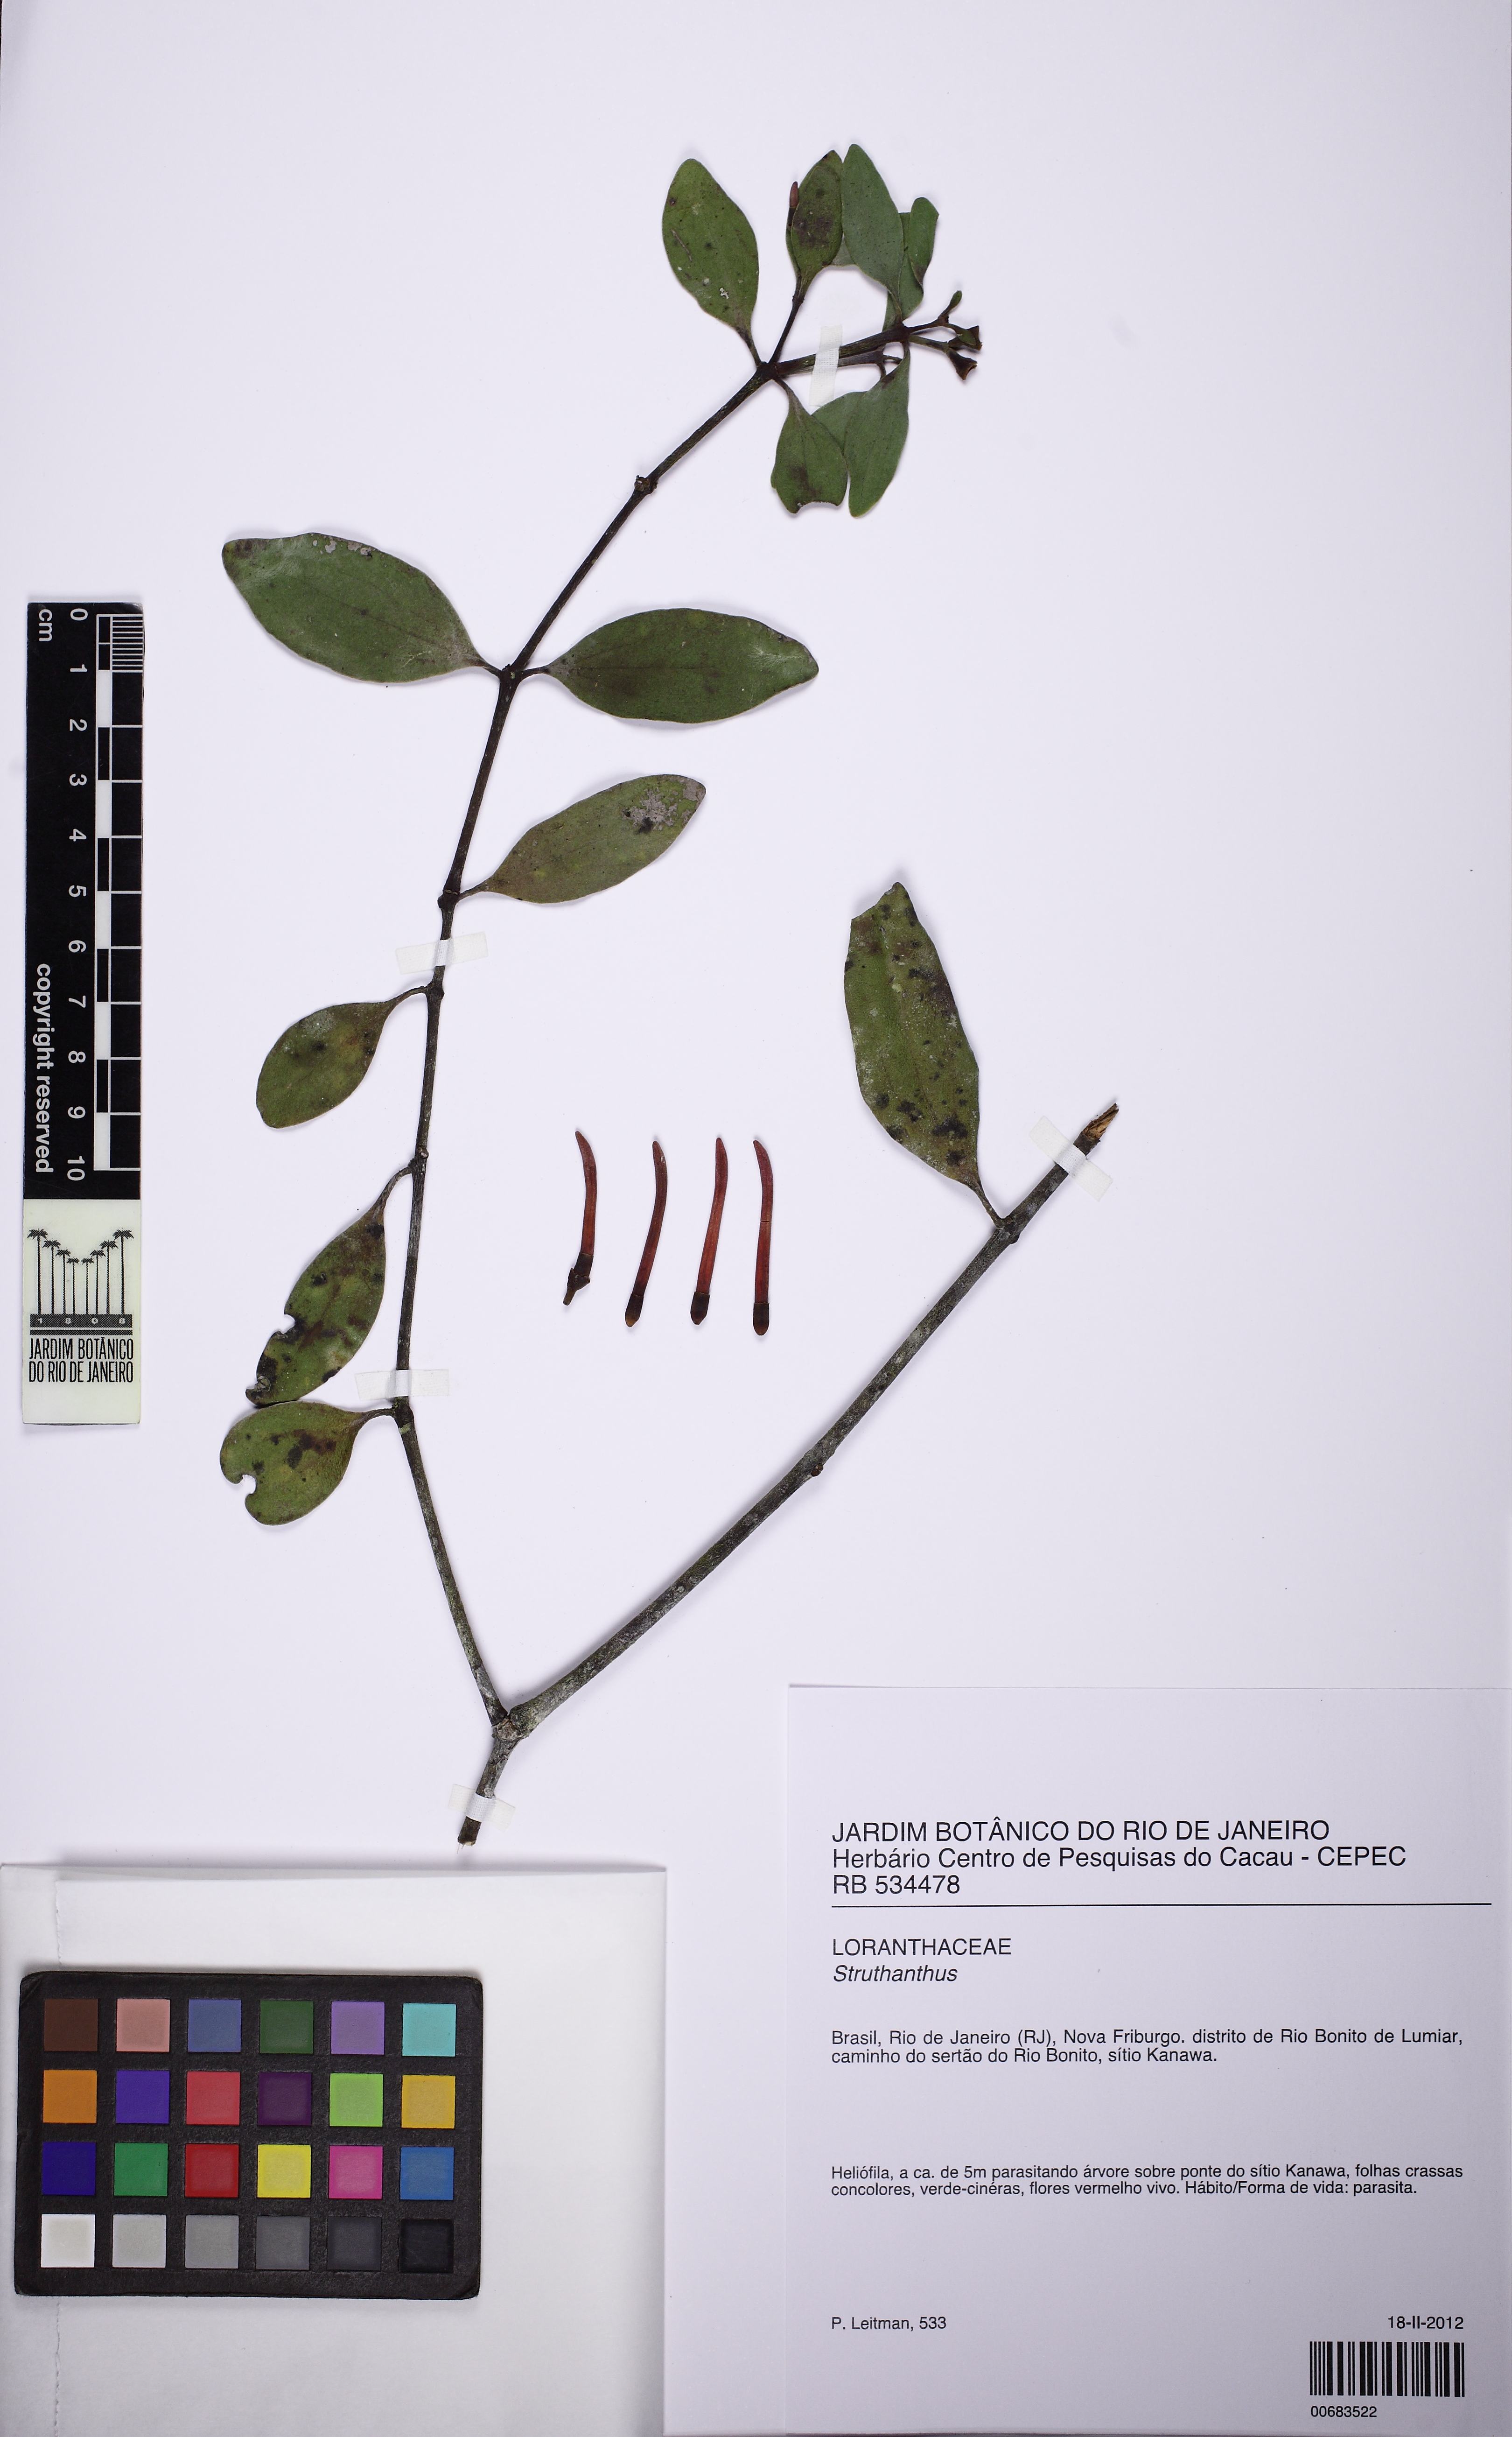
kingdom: Plantae
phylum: Tracheophyta
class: Magnoliopsida
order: Santalales
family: Loranthaceae
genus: Struthanthus
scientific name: Struthanthus
